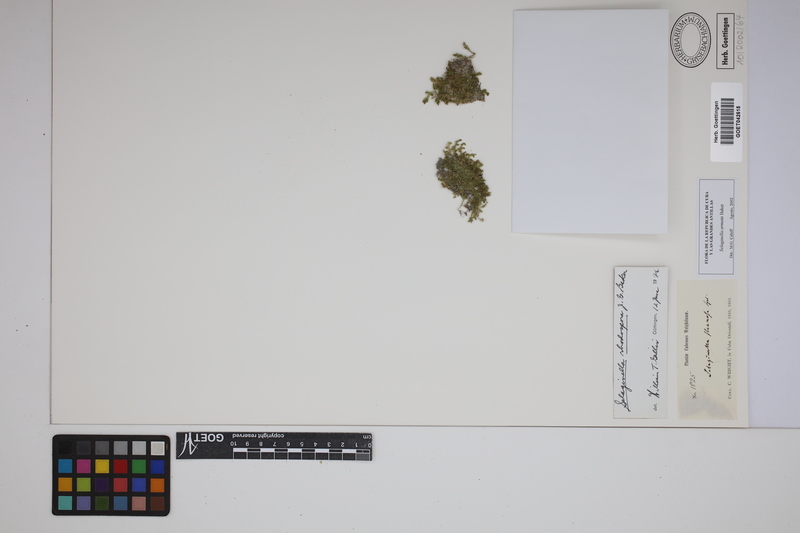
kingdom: Plantae
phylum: Tracheophyta
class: Lycopodiopsida
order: Selaginellales
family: Selaginellaceae
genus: Selaginella
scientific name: Selaginella muscosa
